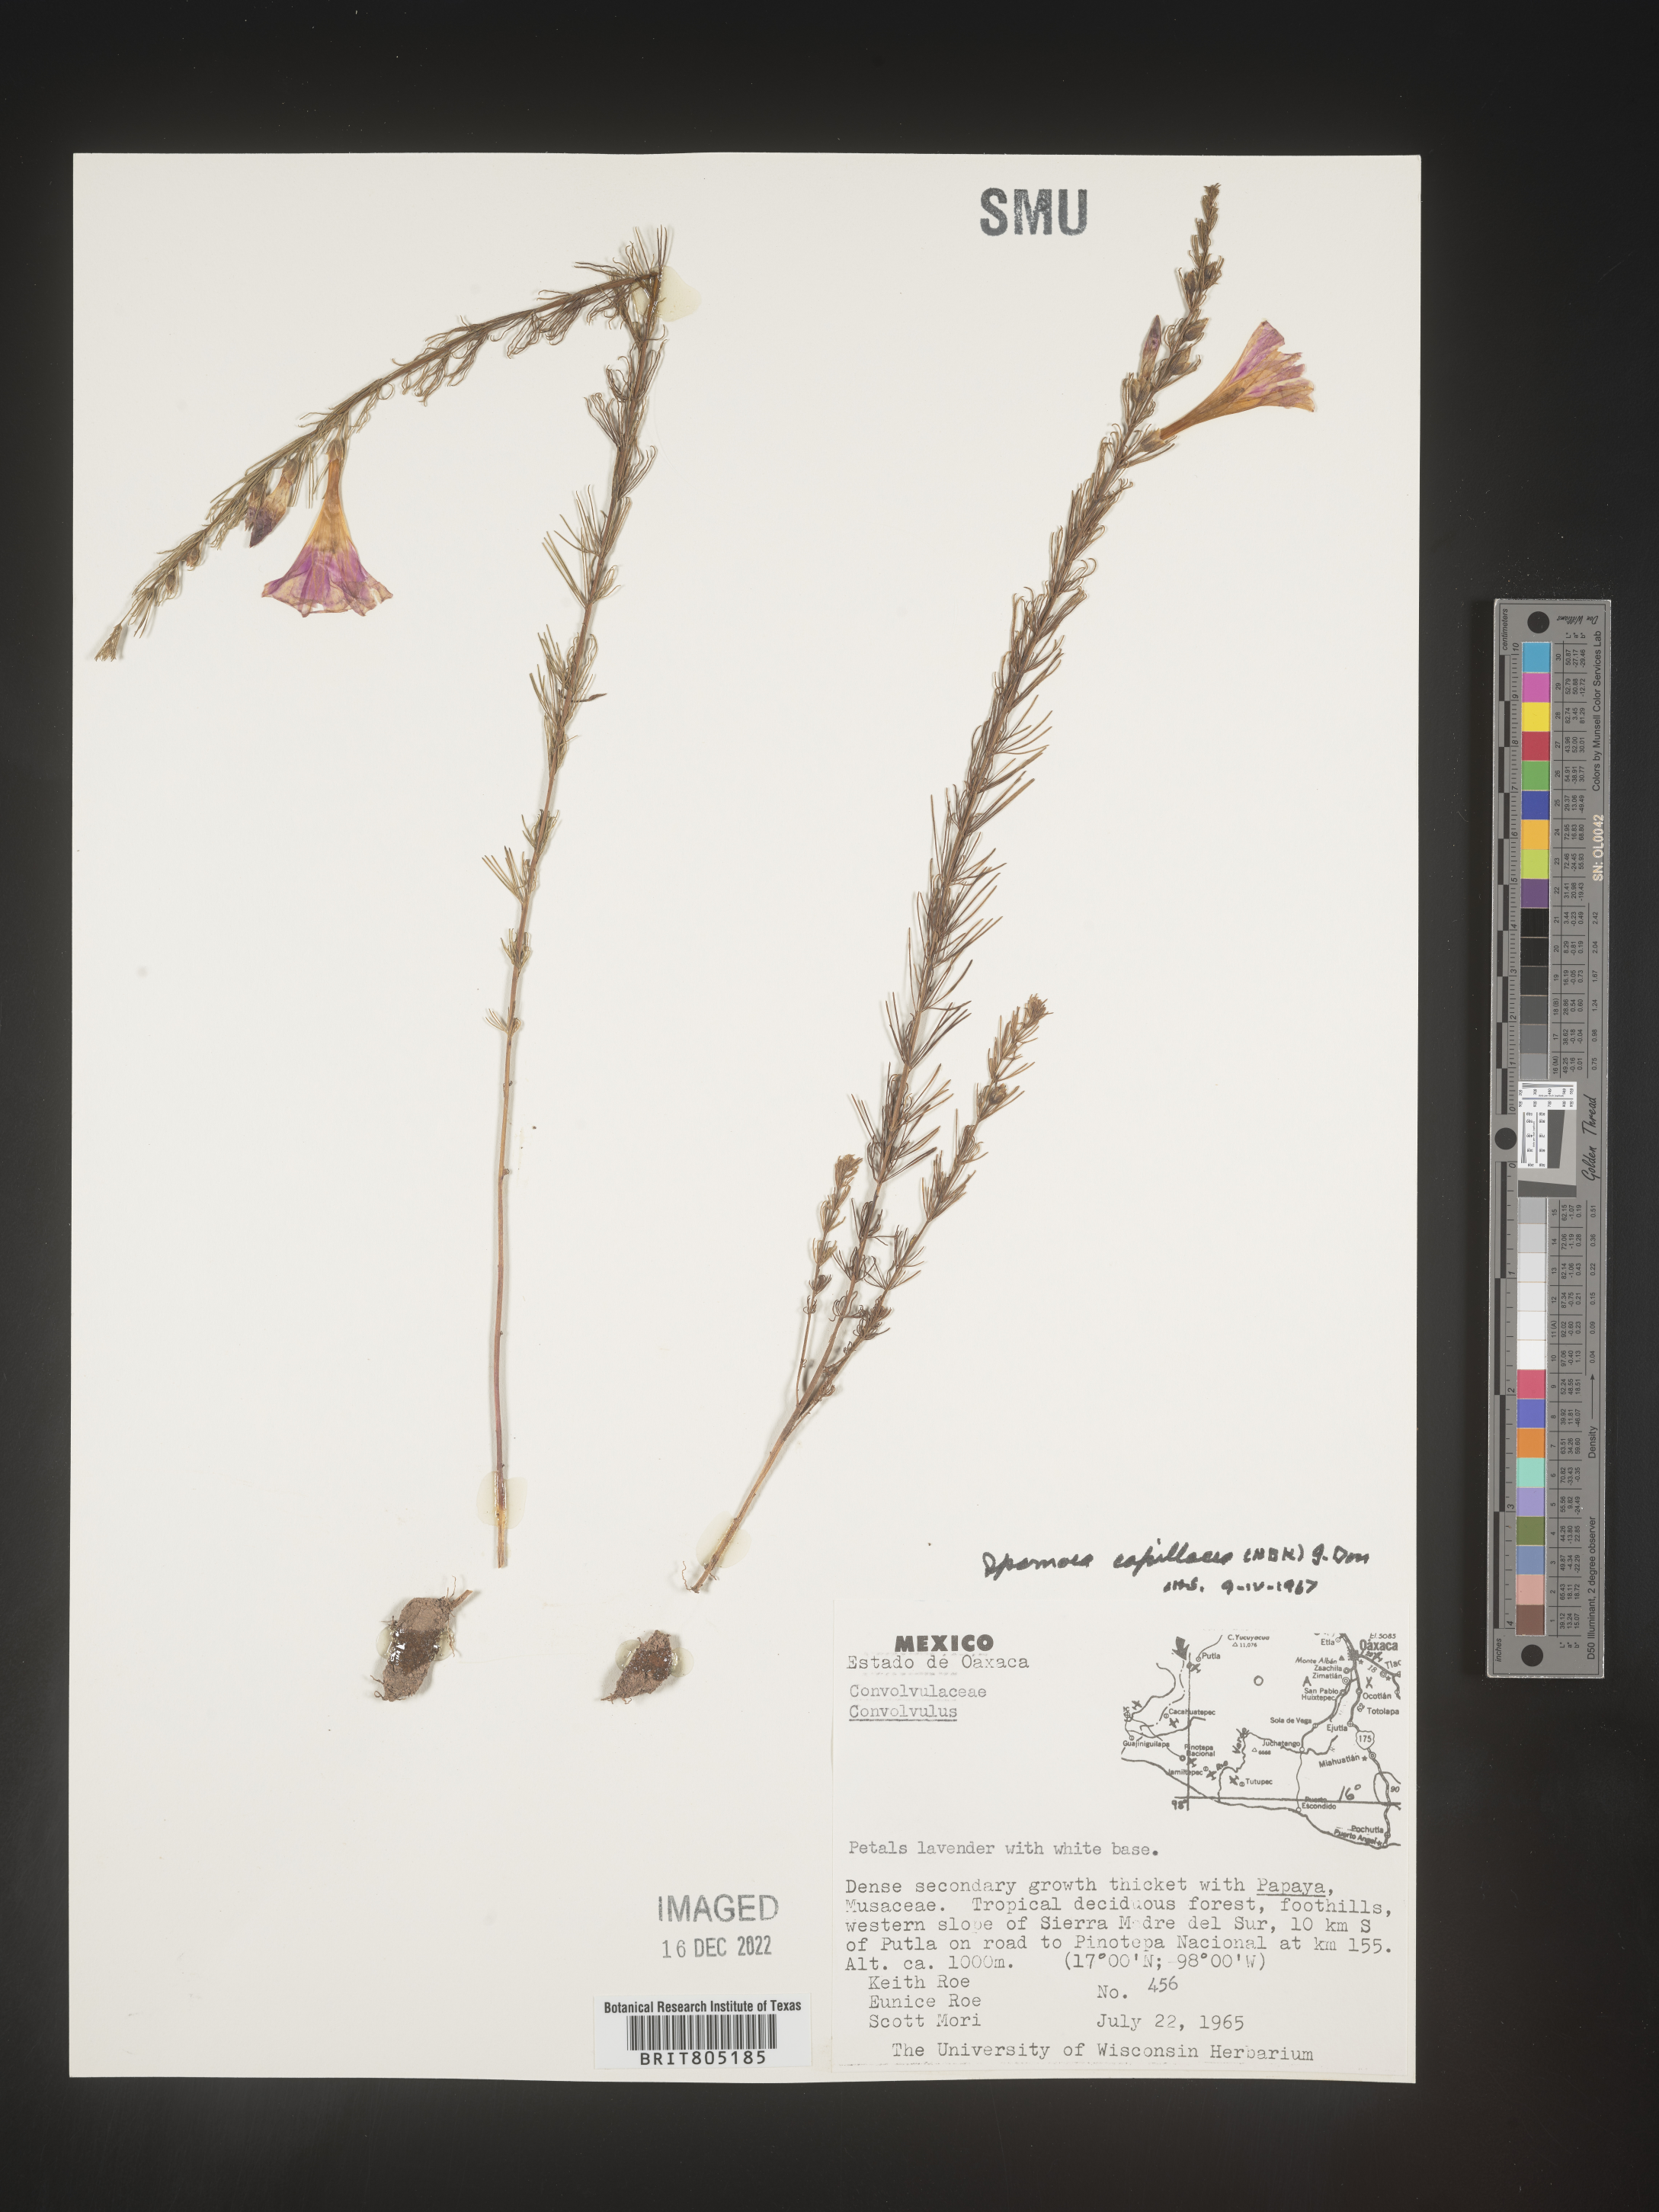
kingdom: Plantae
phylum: Tracheophyta
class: Magnoliopsida
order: Solanales
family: Convolvulaceae
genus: Ipomoea
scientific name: Ipomoea
